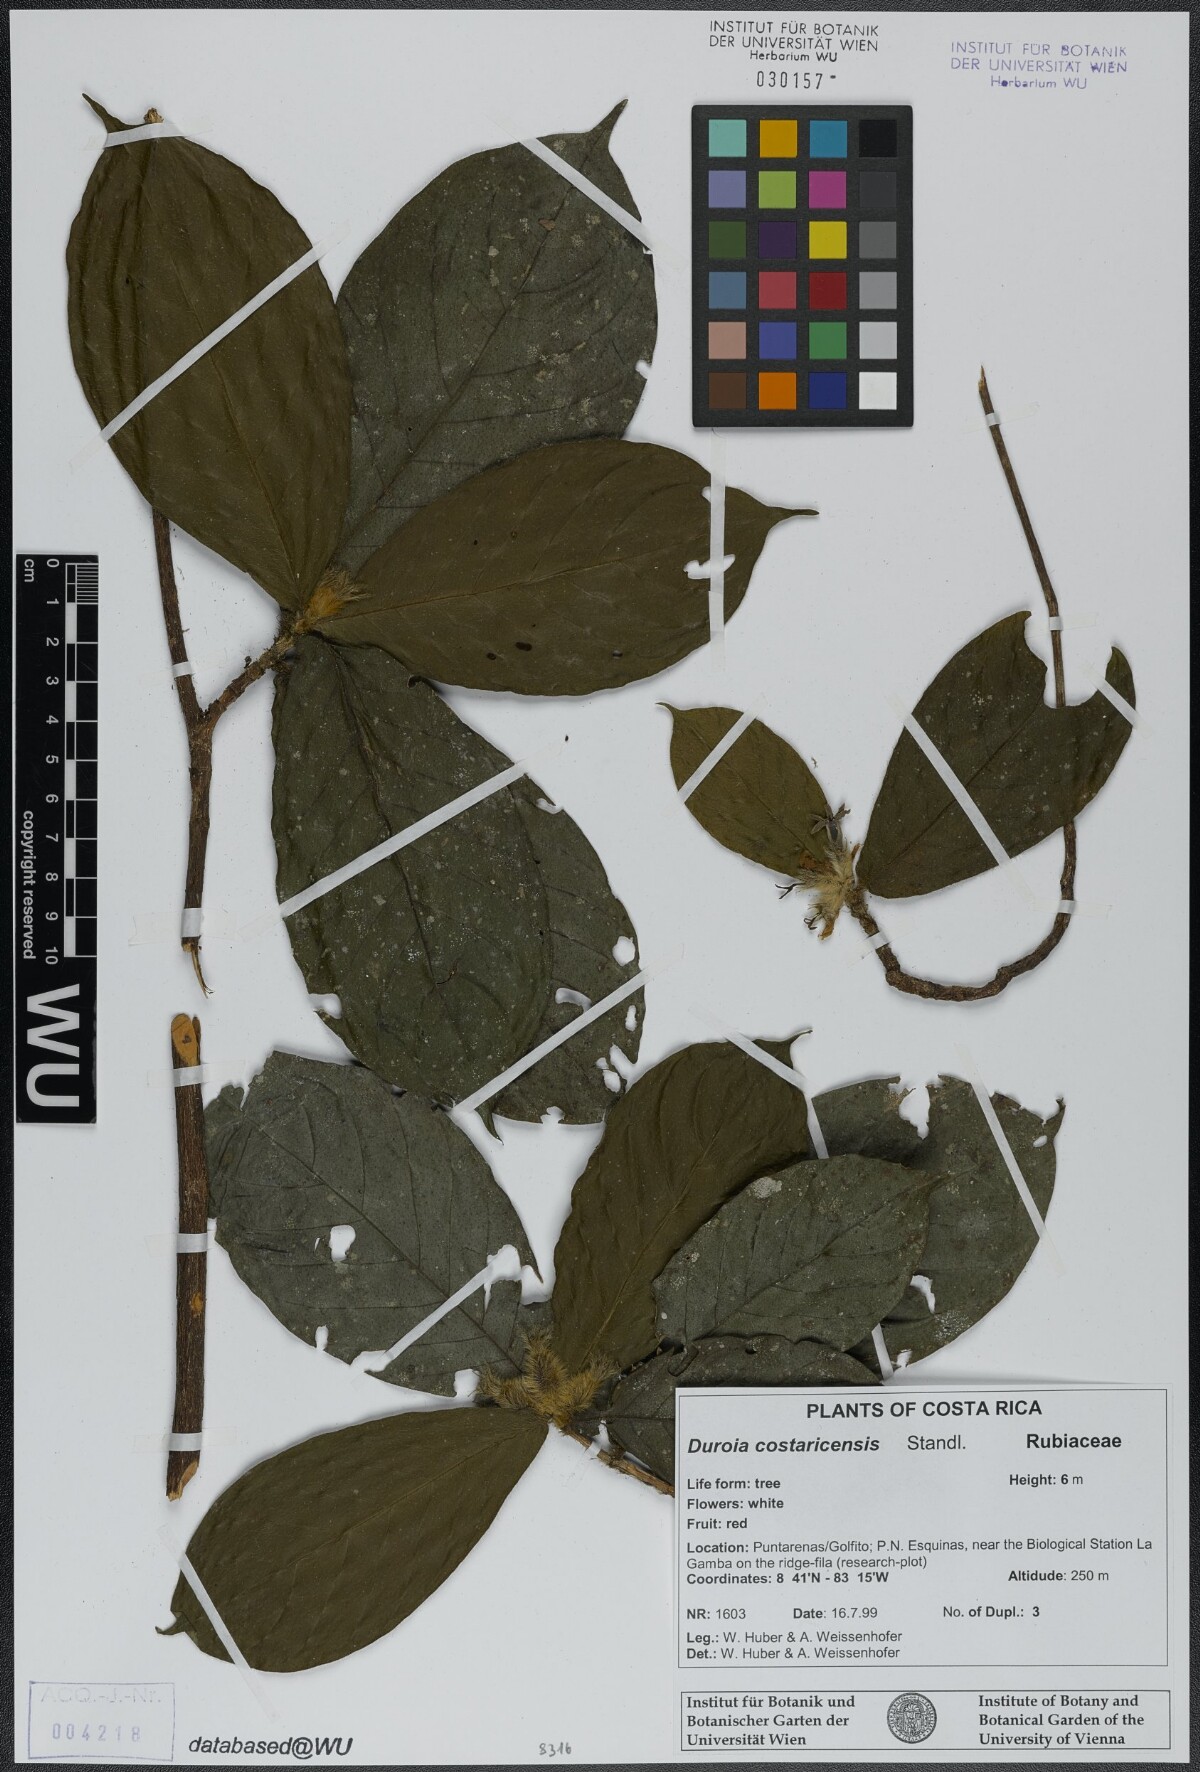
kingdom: Plantae
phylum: Tracheophyta
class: Magnoliopsida
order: Gentianales
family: Rubiaceae
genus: Duroia
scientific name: Duroia costaricensis
